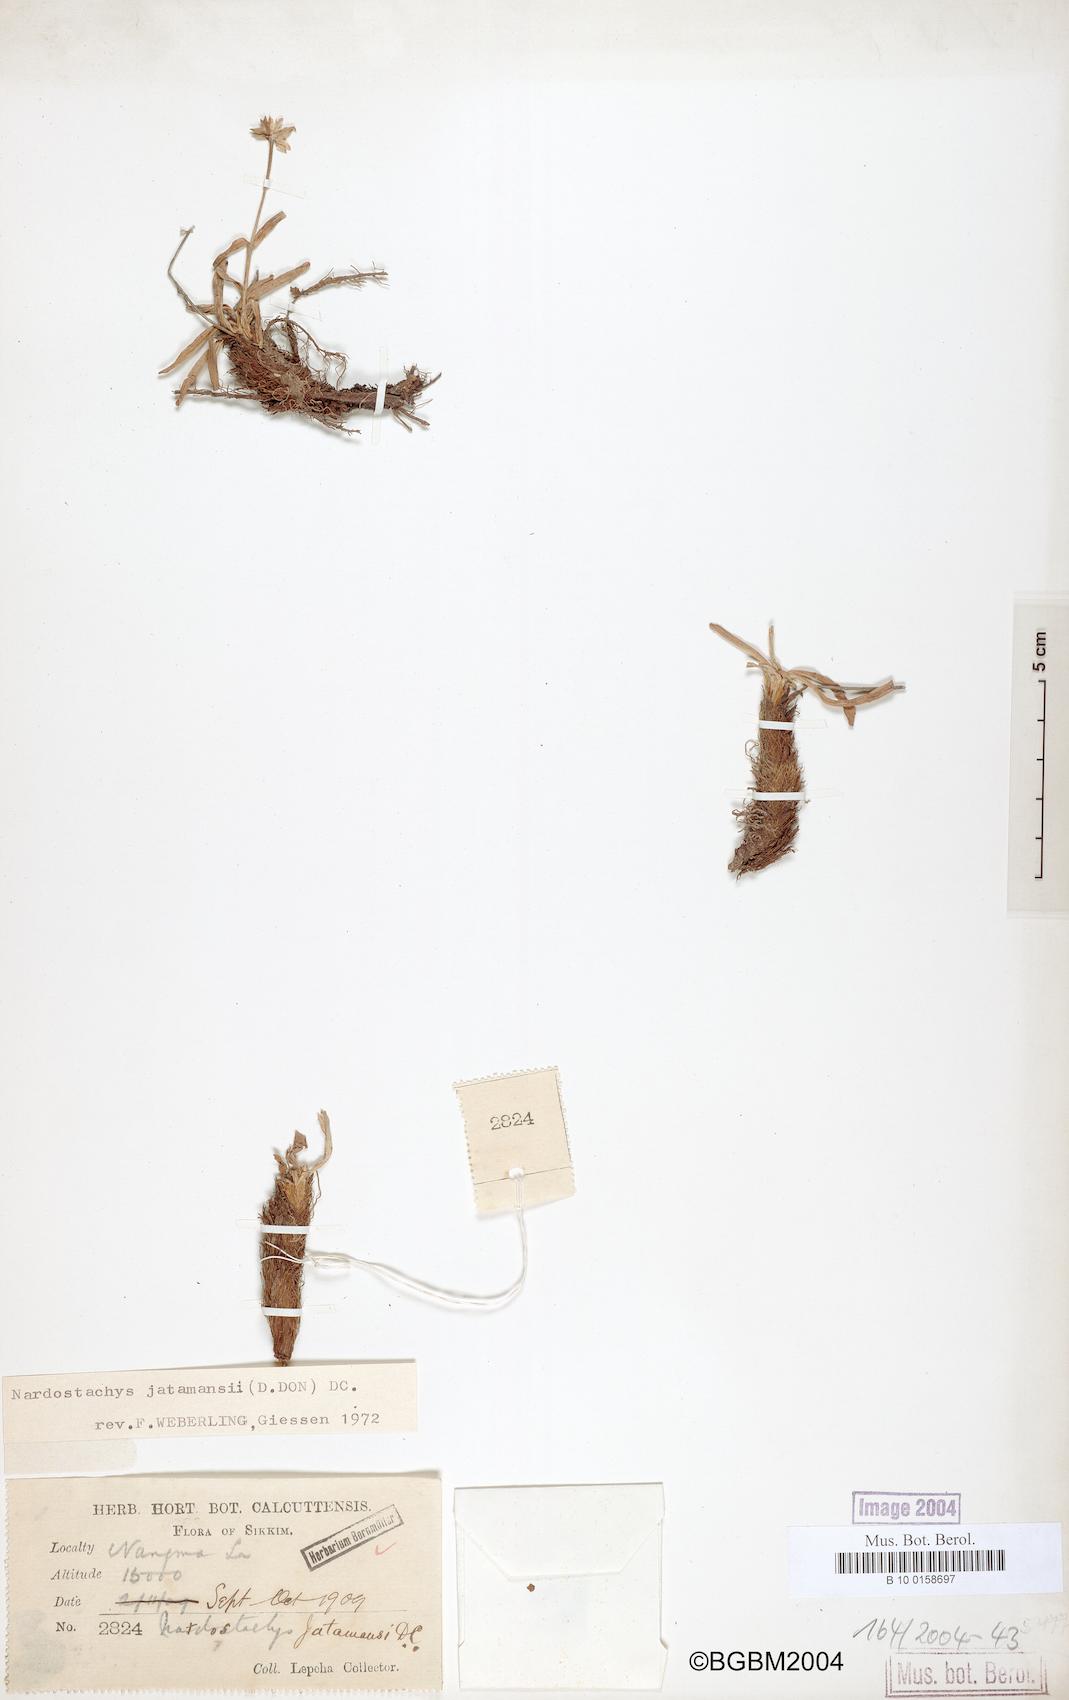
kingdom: Plantae
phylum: Tracheophyta
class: Magnoliopsida
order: Dipsacales
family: Caprifoliaceae
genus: Nardostachys
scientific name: Nardostachys jatamansi
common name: Indian nard
